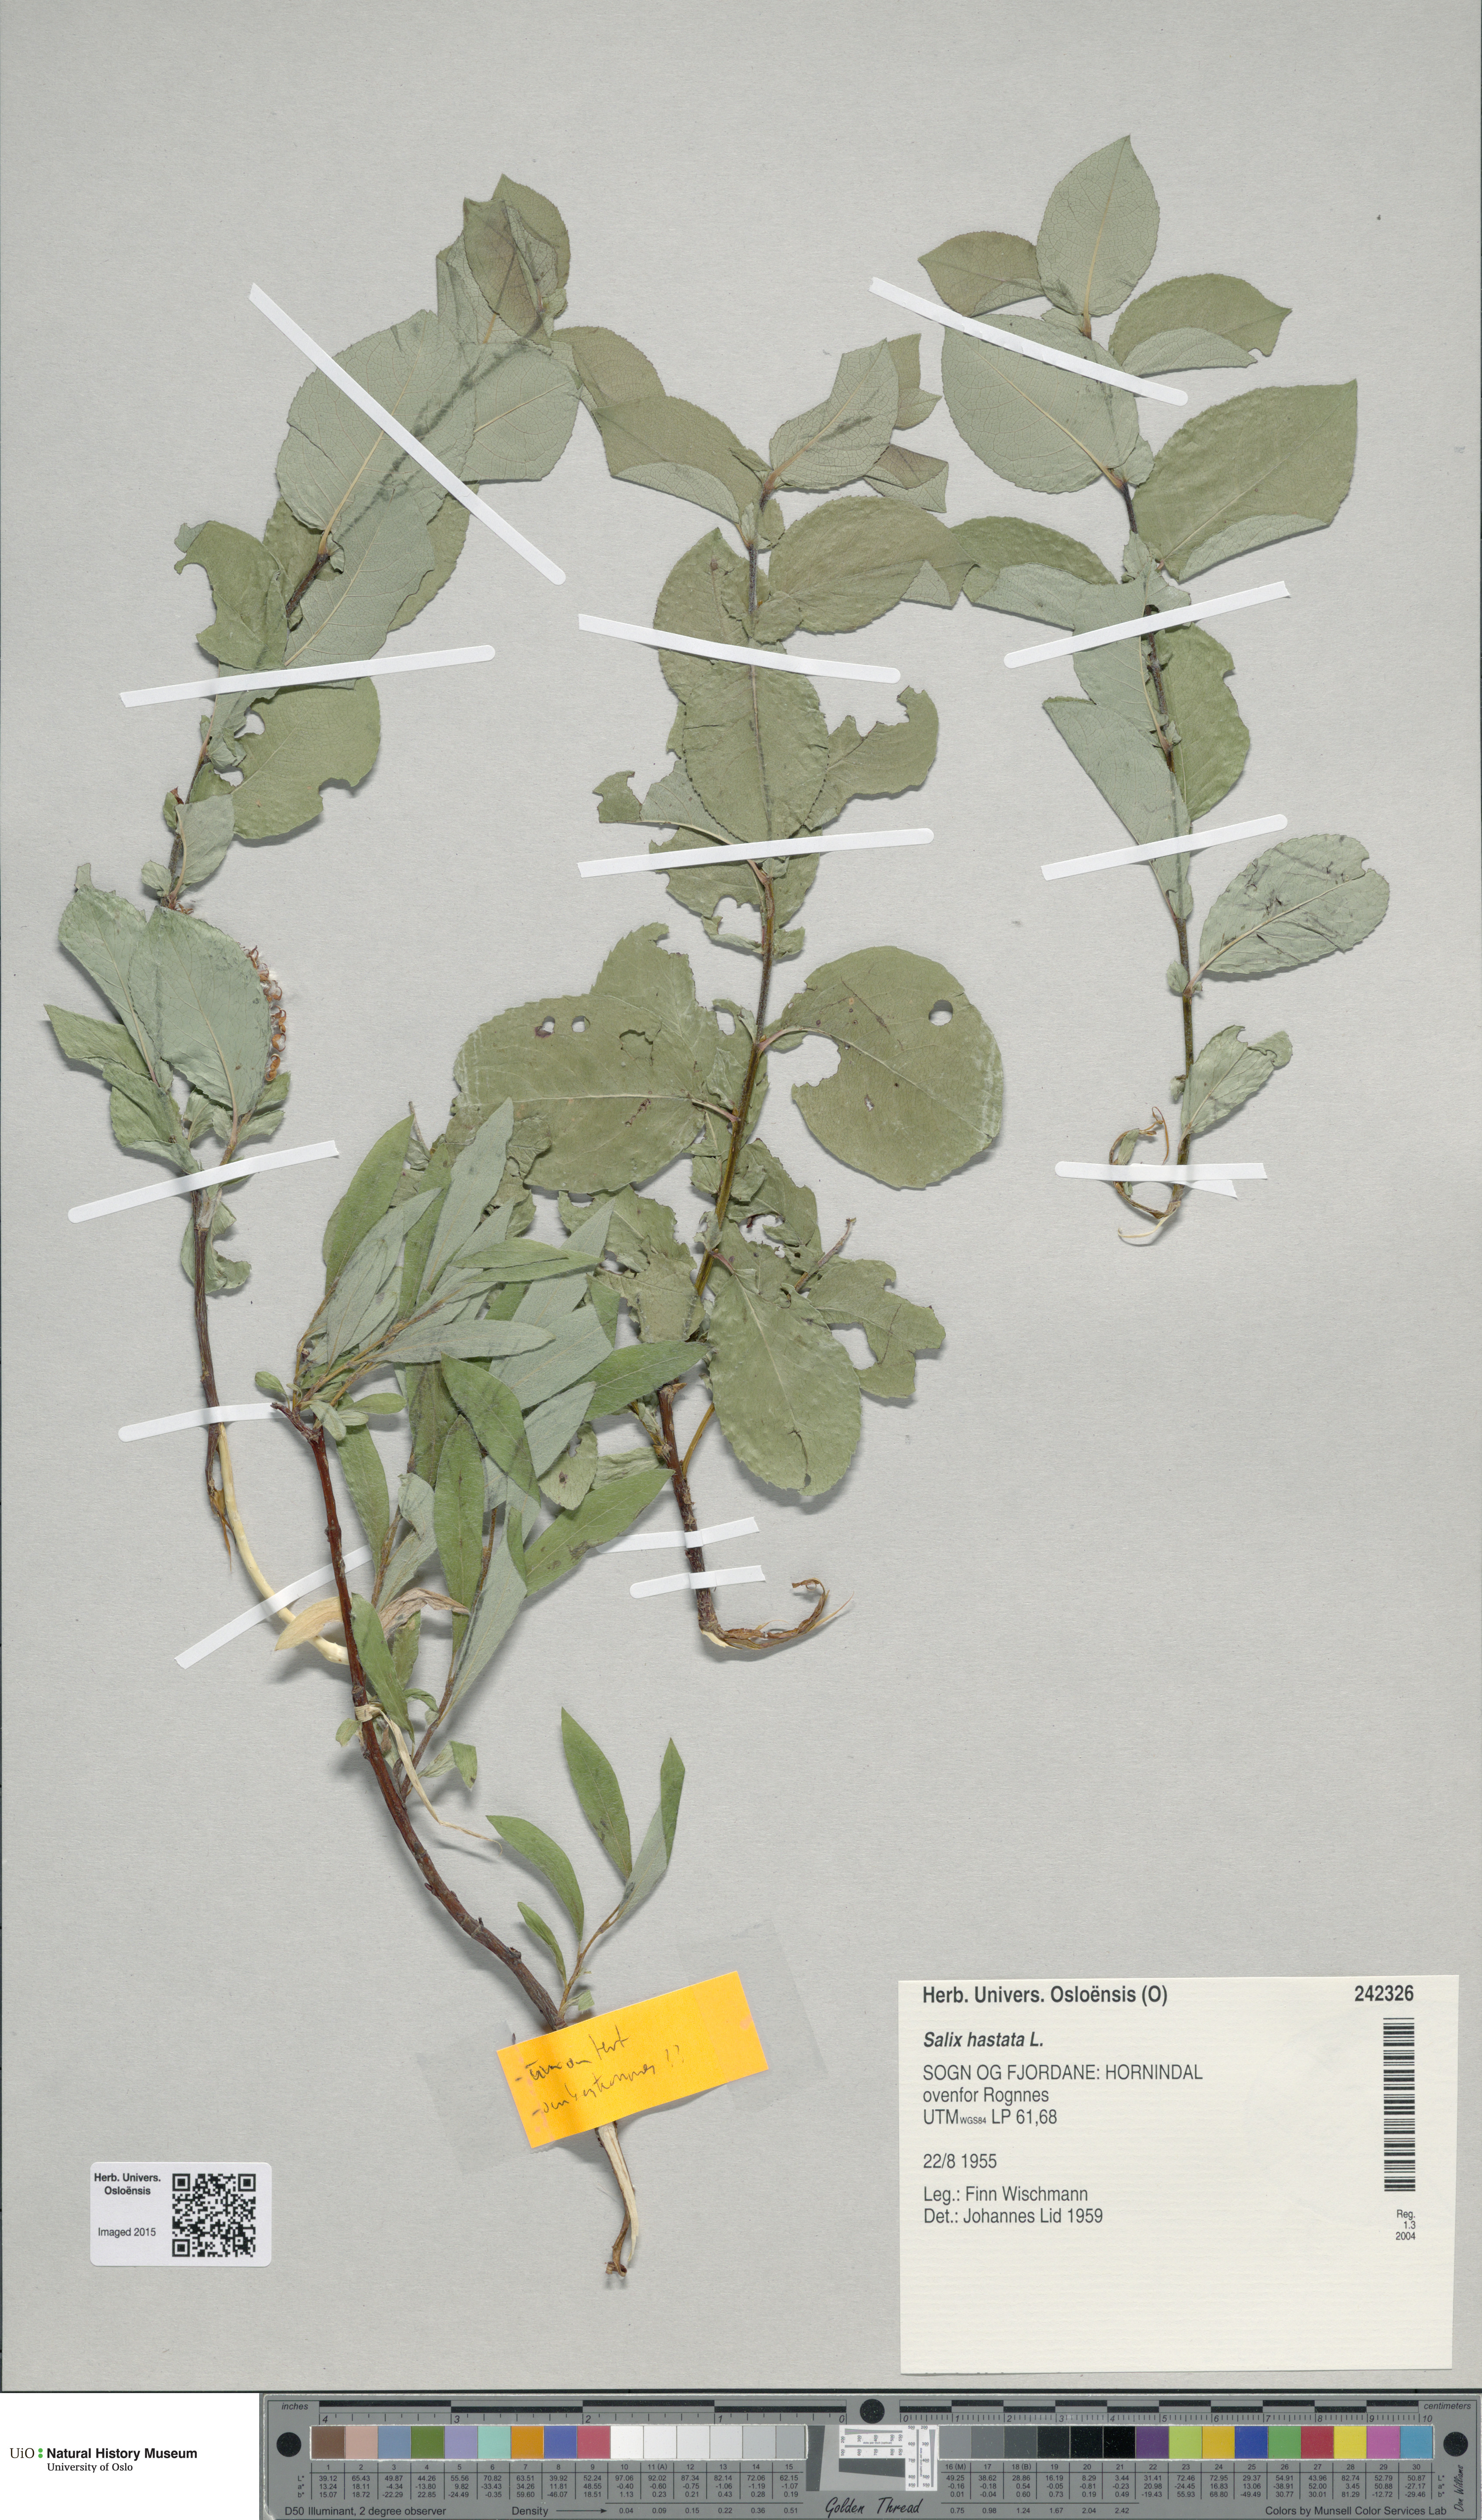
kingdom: Plantae
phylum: Tracheophyta
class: Magnoliopsida
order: Malpighiales
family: Salicaceae
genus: Salix
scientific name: Salix hastata
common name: Halberd willow
